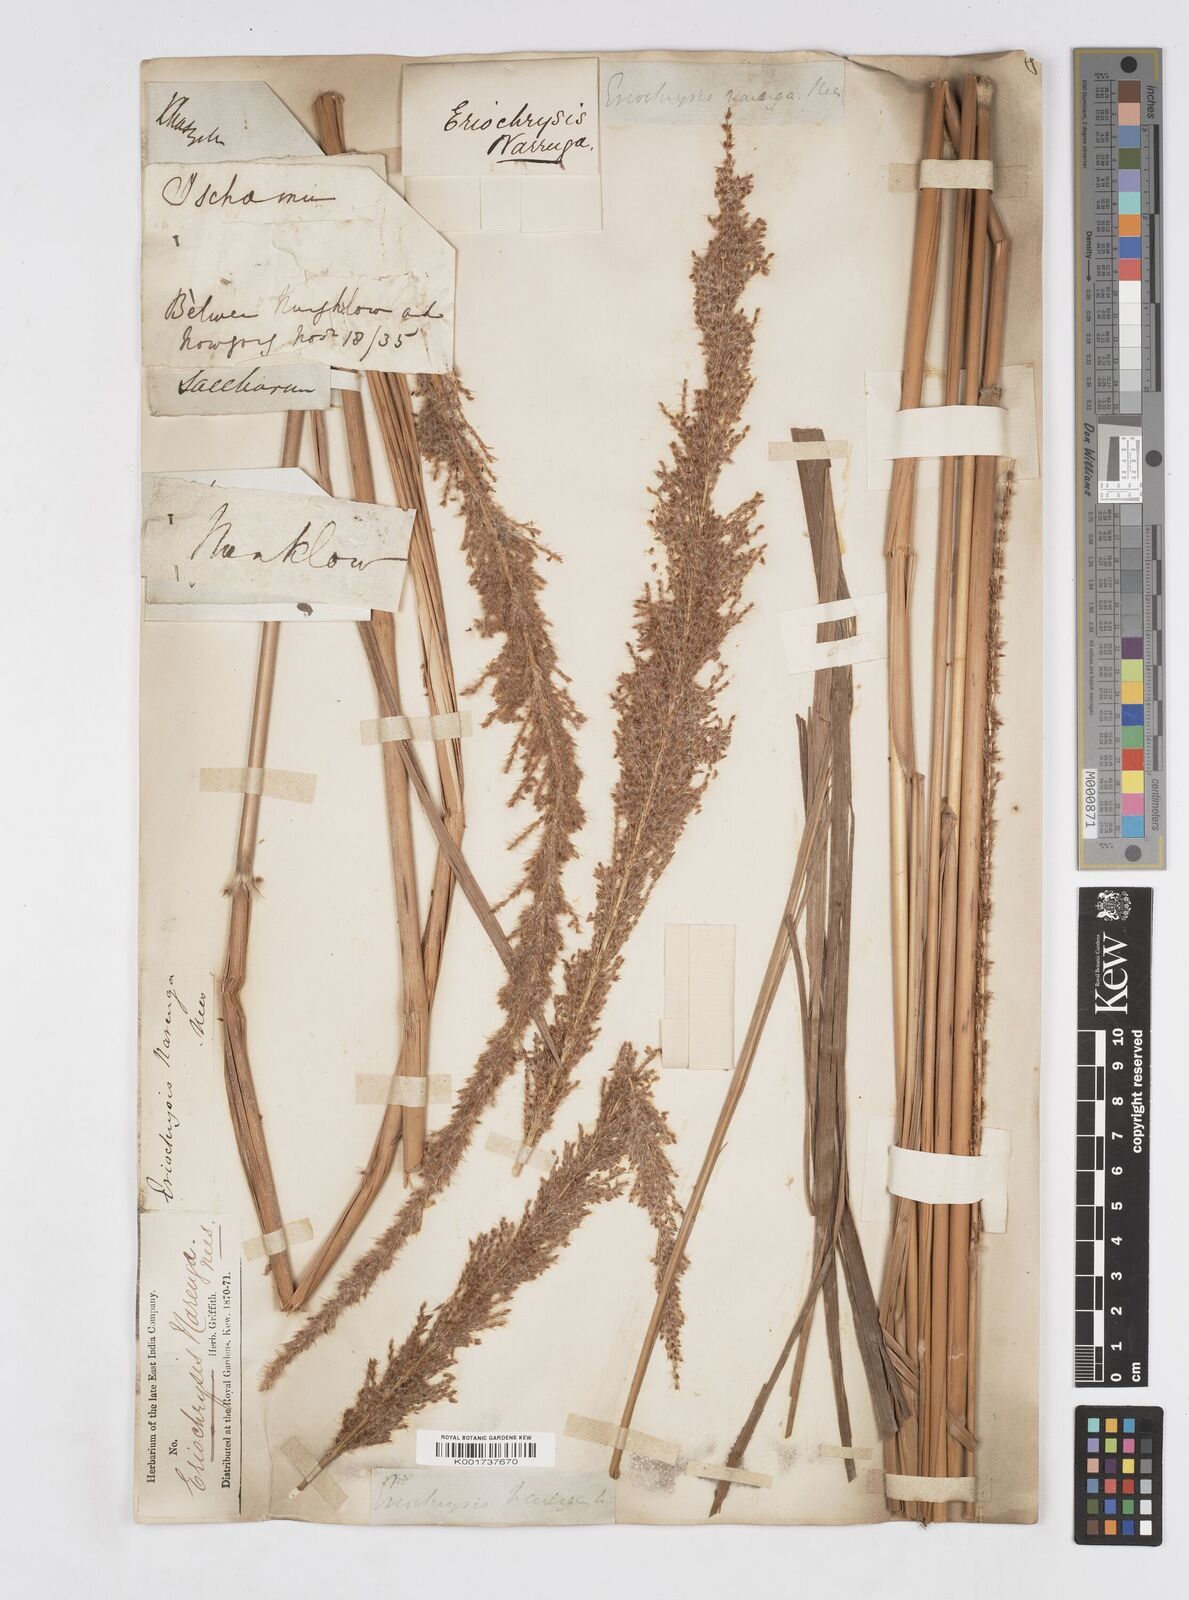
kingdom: Plantae
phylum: Tracheophyta
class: Liliopsida
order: Poales
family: Poaceae
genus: Narenga
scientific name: Narenga porphyrocoma
